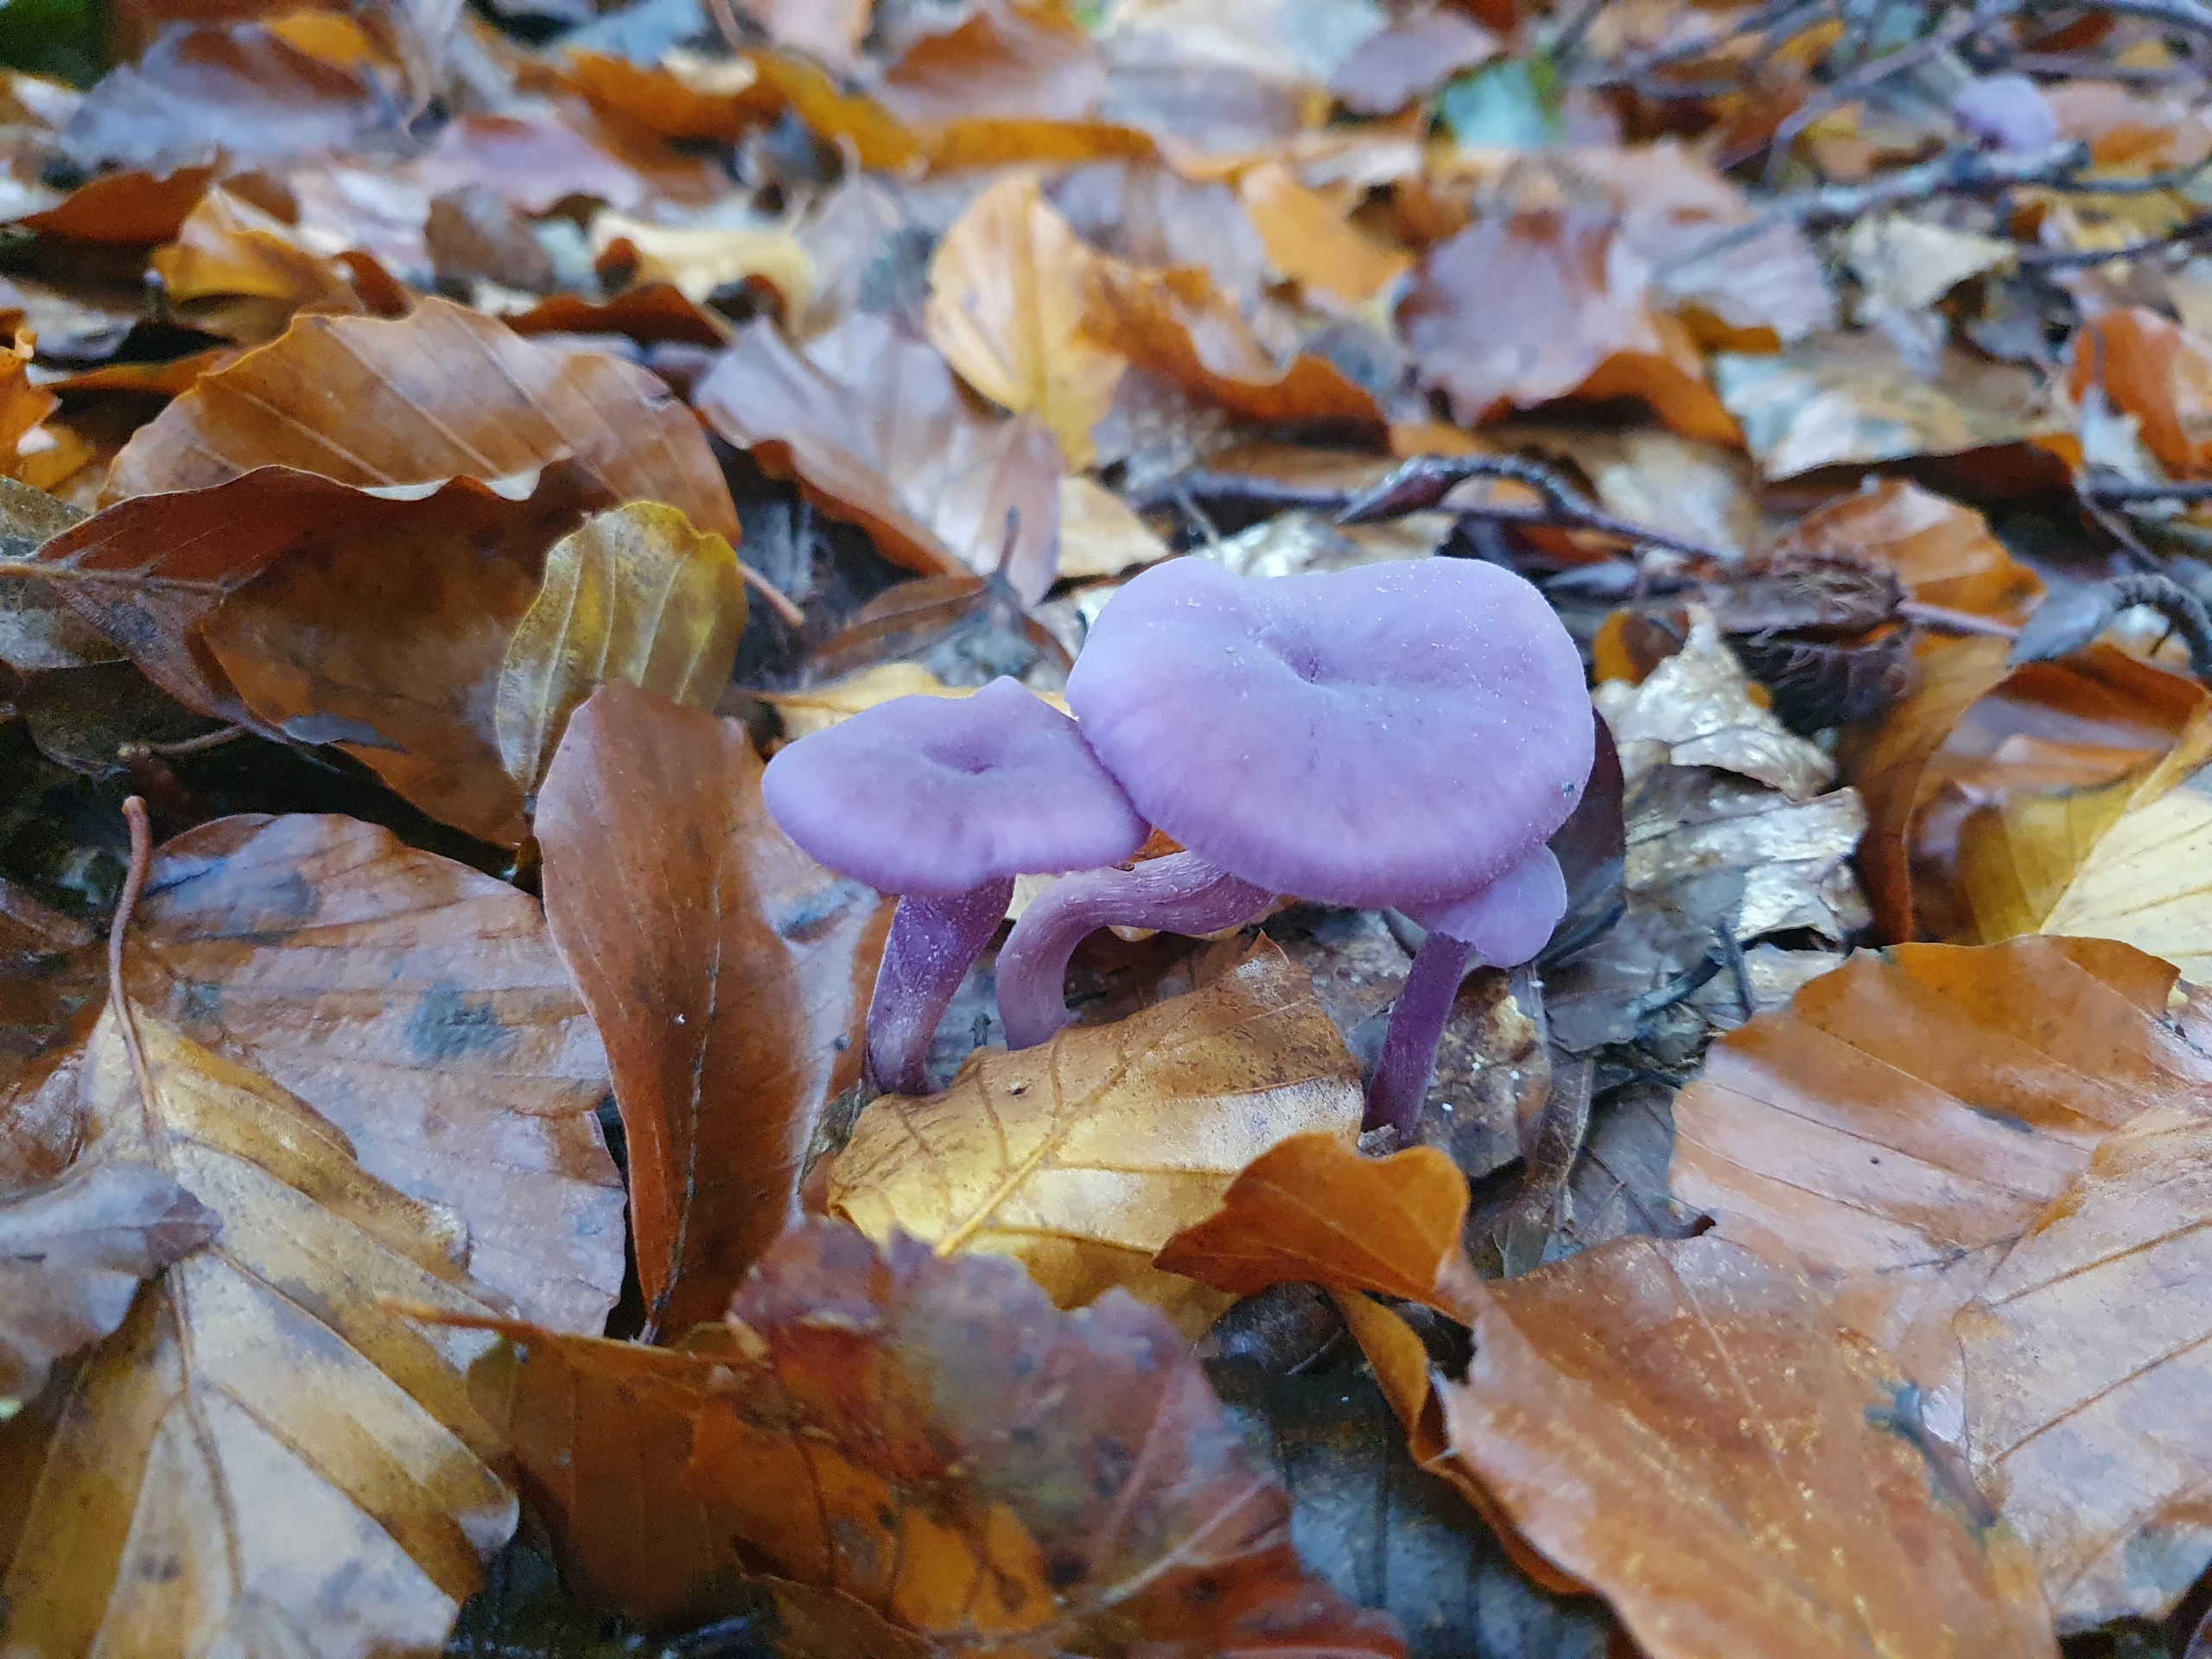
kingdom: Fungi
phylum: Basidiomycota
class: Agaricomycetes
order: Agaricales
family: Hydnangiaceae
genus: Laccaria
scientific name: Laccaria amethystina
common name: Violet ametysthat
